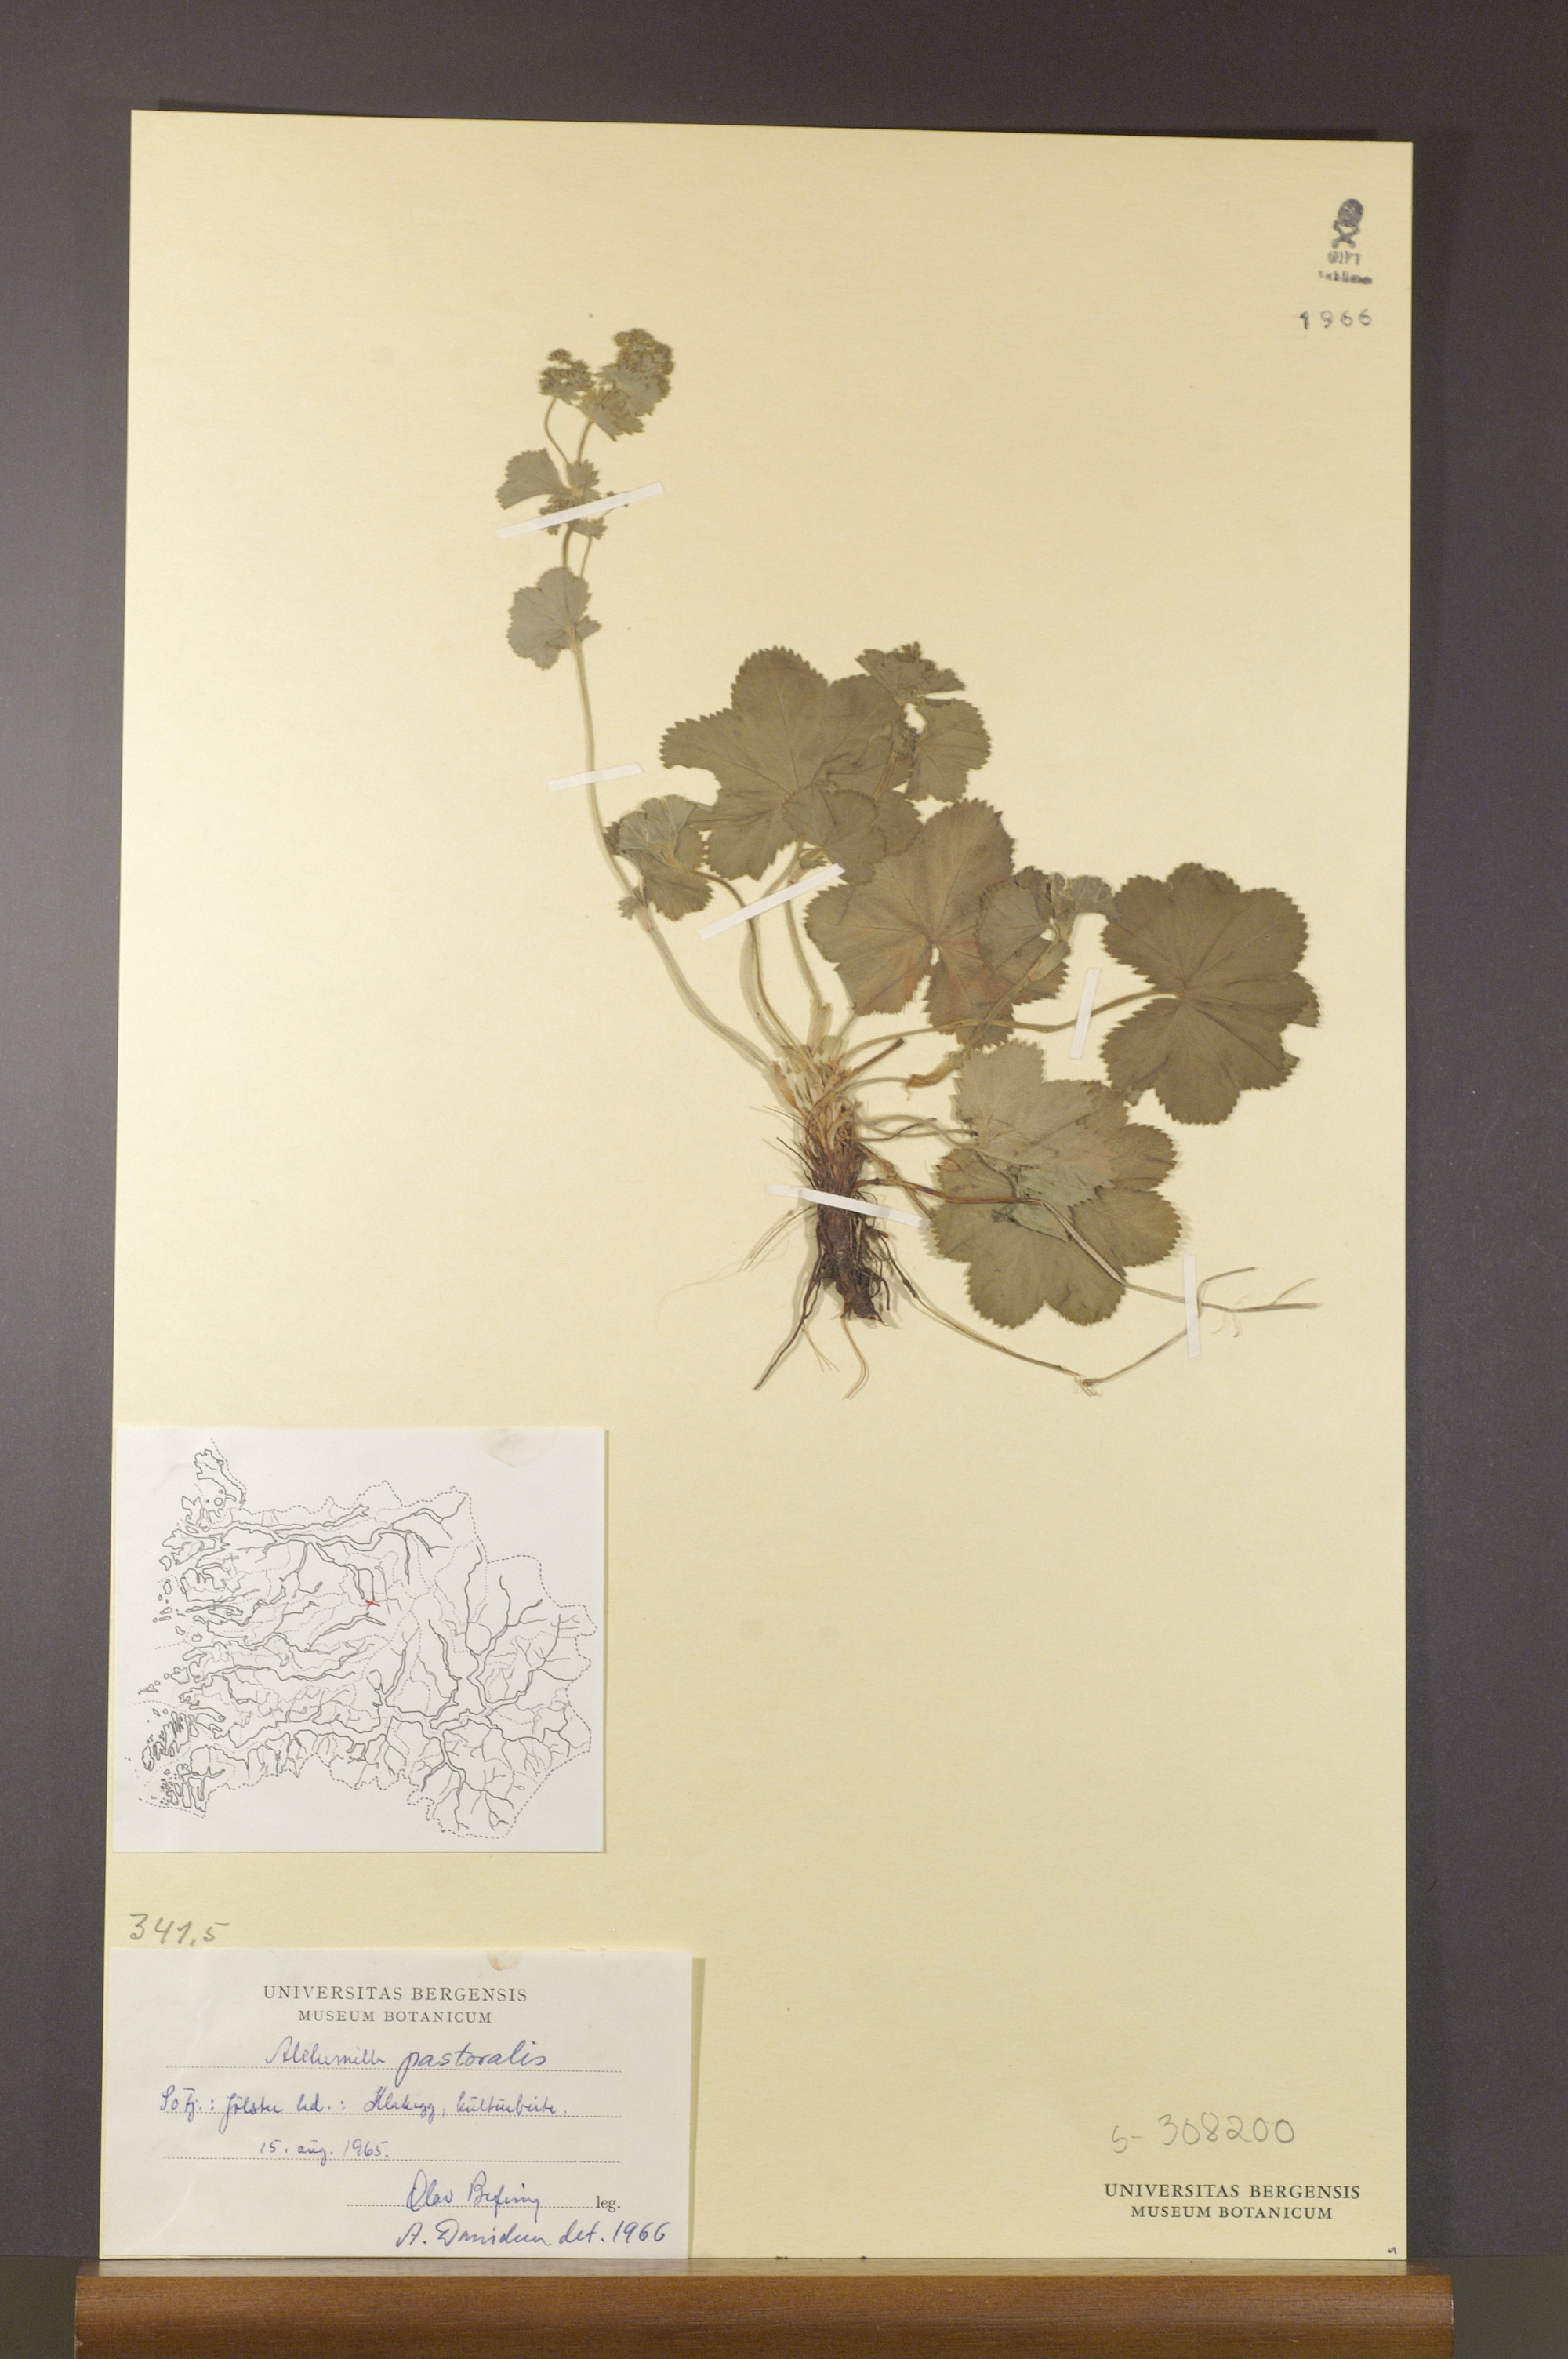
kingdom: Plantae
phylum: Tracheophyta
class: Magnoliopsida
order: Rosales
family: Rosaceae
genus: Alchemilla
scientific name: Alchemilla monticola
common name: Hairy lady's mantle
